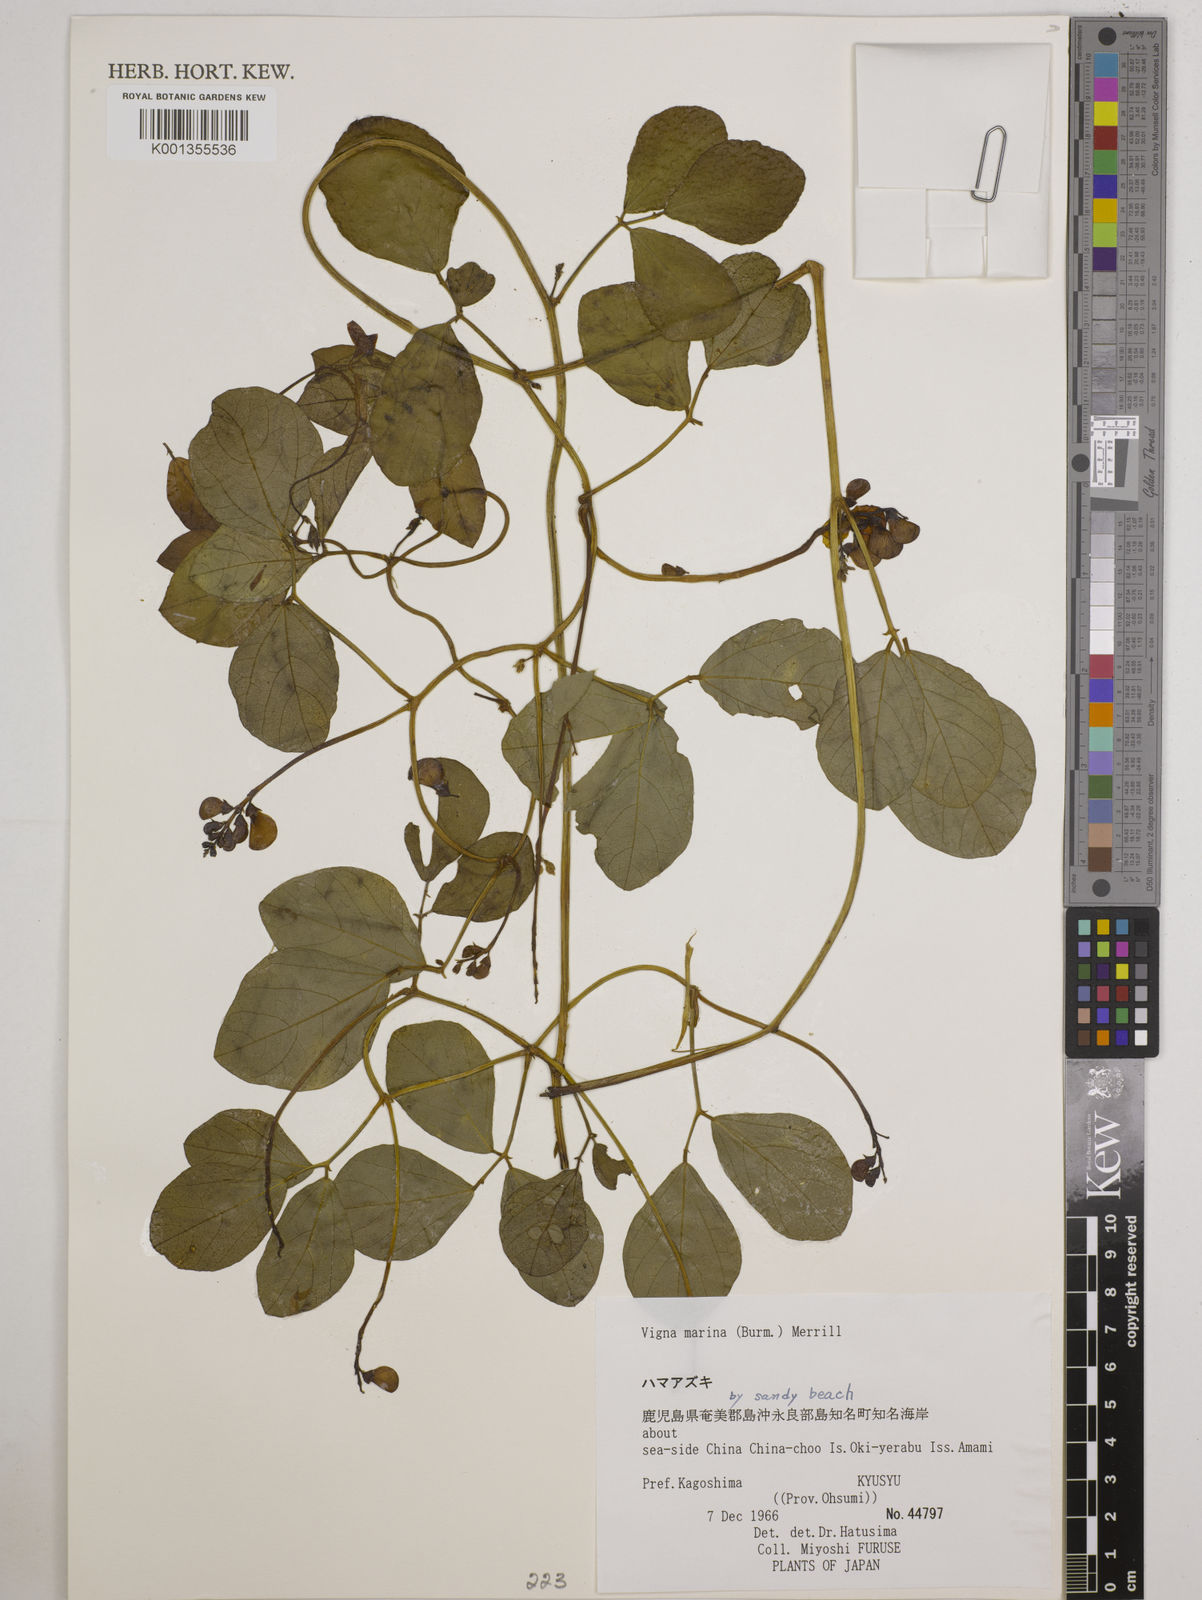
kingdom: Plantae
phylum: Tracheophyta
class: Magnoliopsida
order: Fabales
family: Fabaceae
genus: Vigna
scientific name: Vigna marina
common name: Dune-bean
